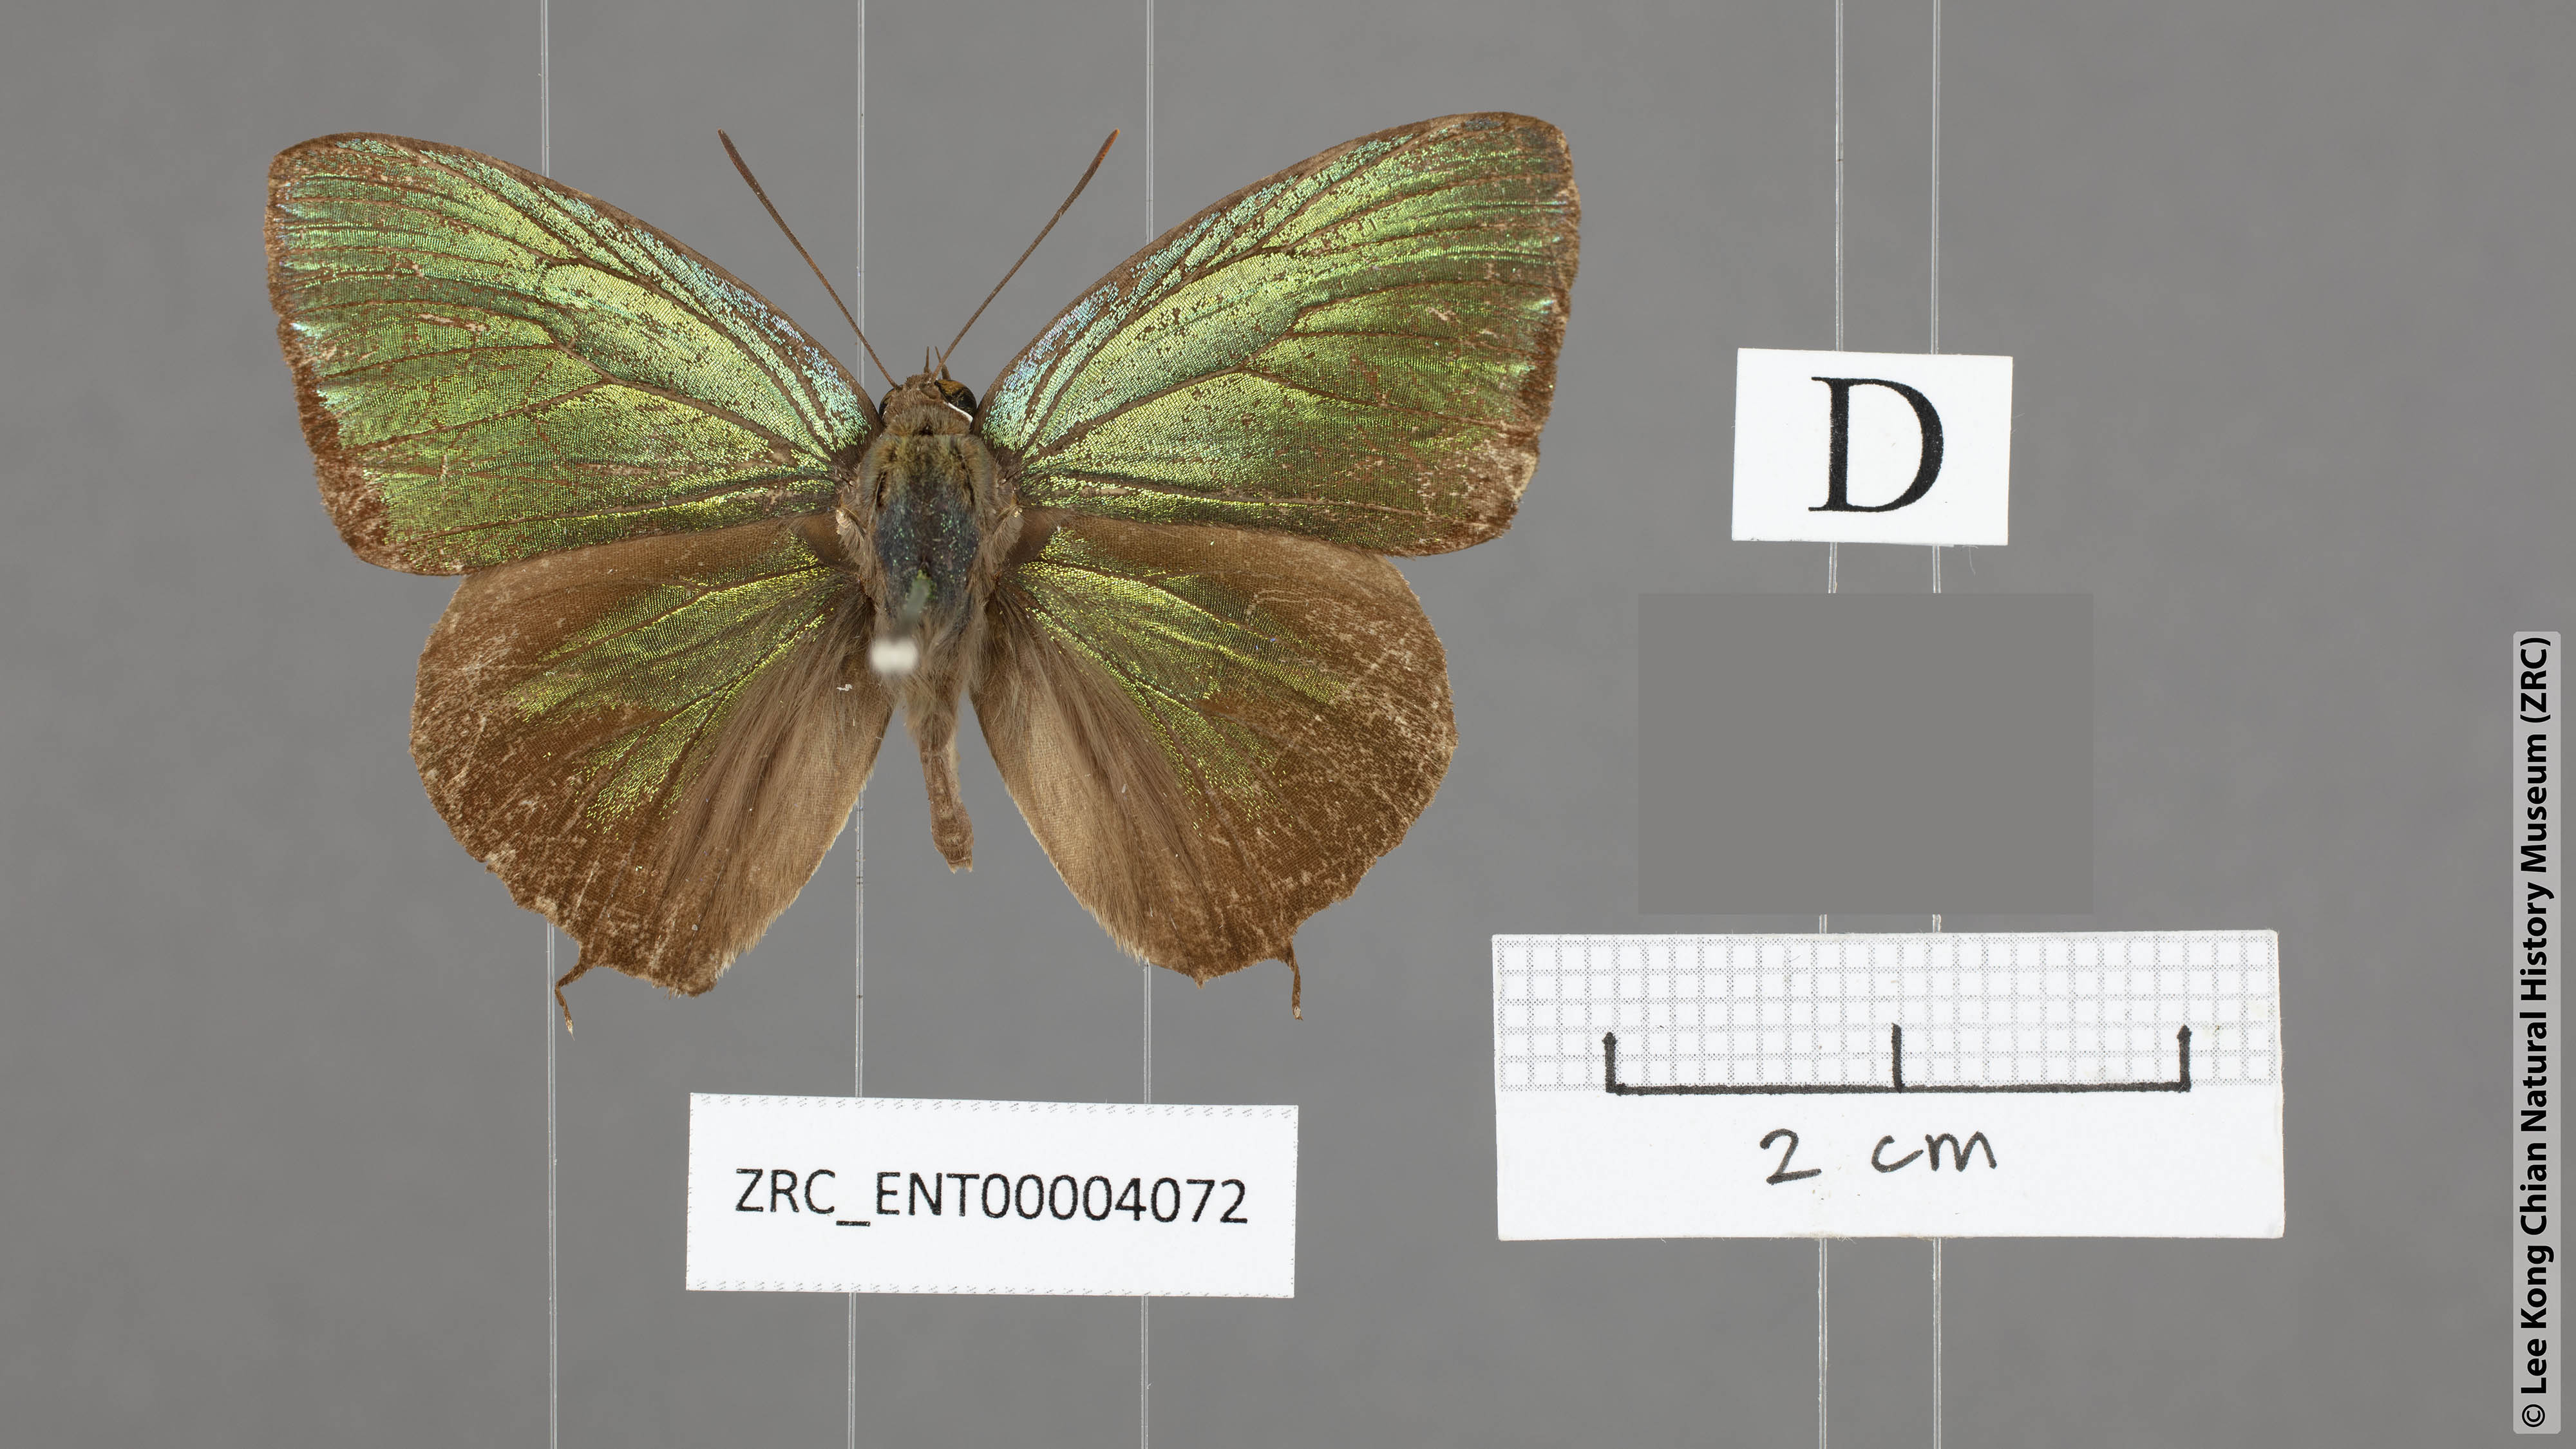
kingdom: Animalia
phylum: Arthropoda
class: Insecta
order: Lepidoptera
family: Lycaenidae
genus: Arhopala
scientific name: Arhopala hellenore
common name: Doherty's green oakblue
